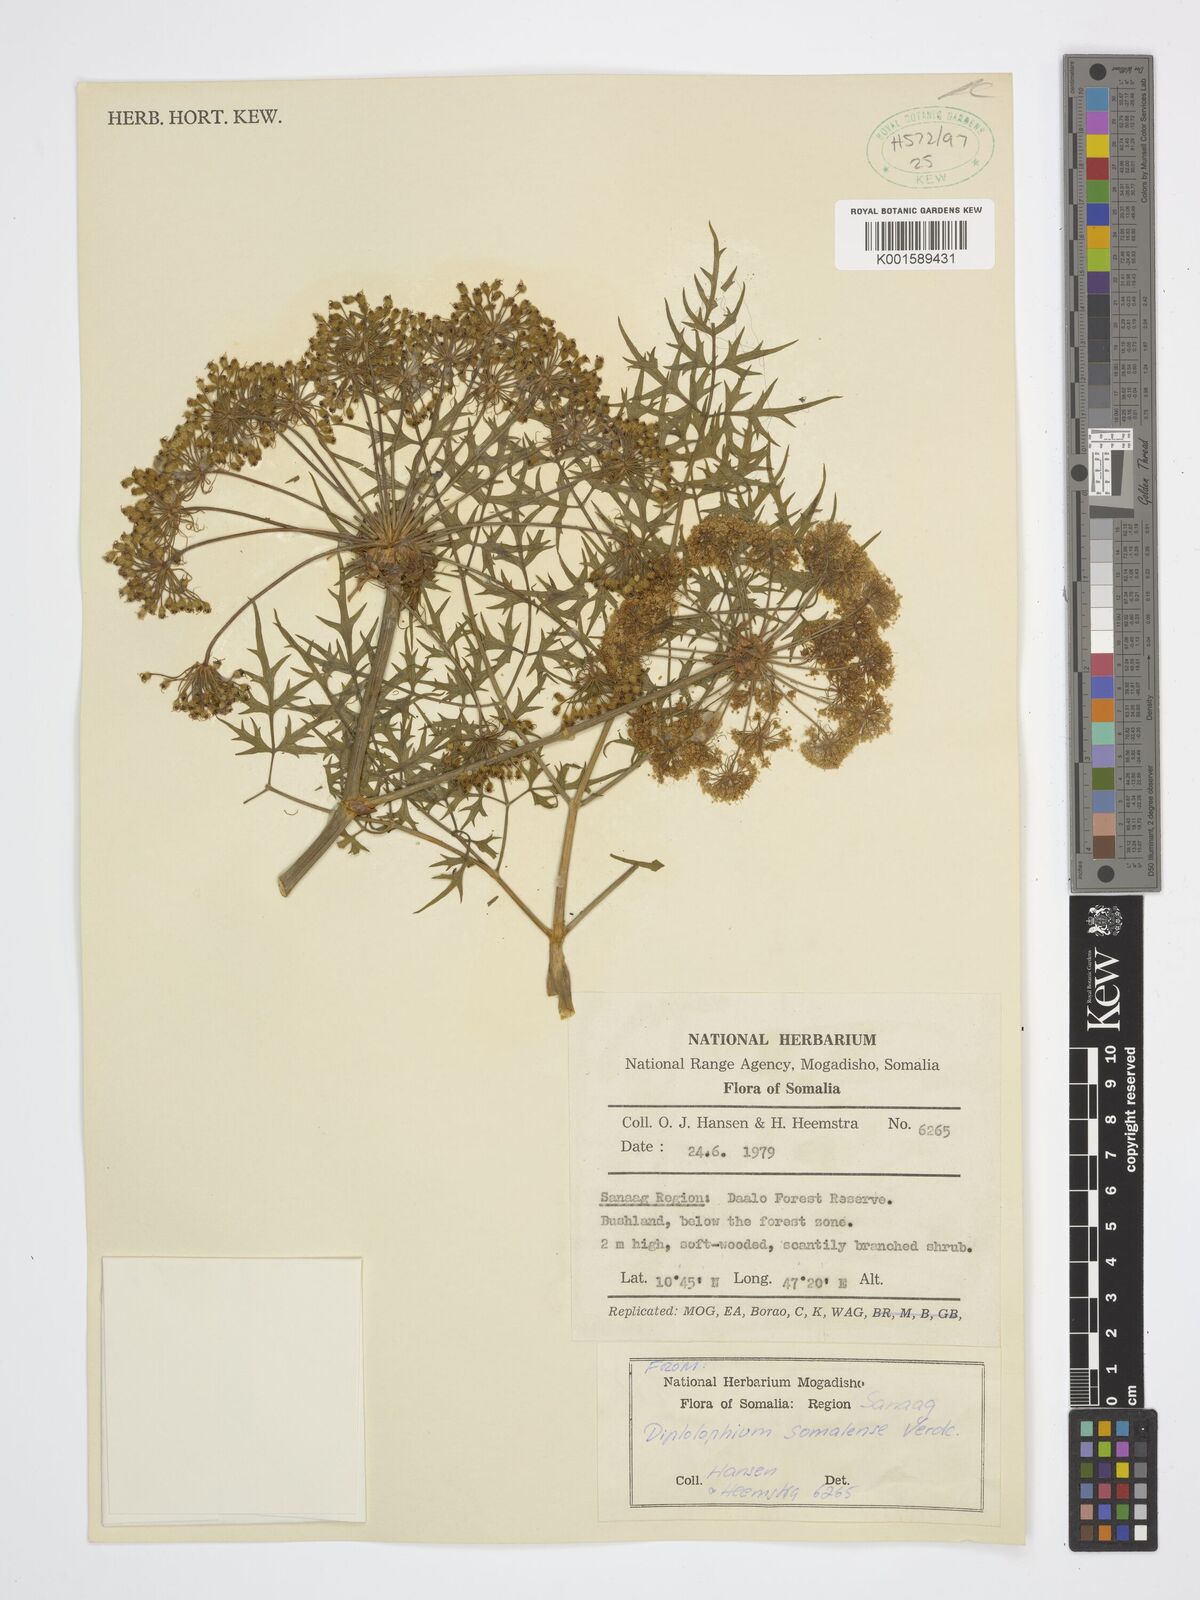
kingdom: Plantae
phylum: Tracheophyta
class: Magnoliopsida
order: Apiales
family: Apiaceae
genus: Diplolophium
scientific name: Diplolophium somaliense
